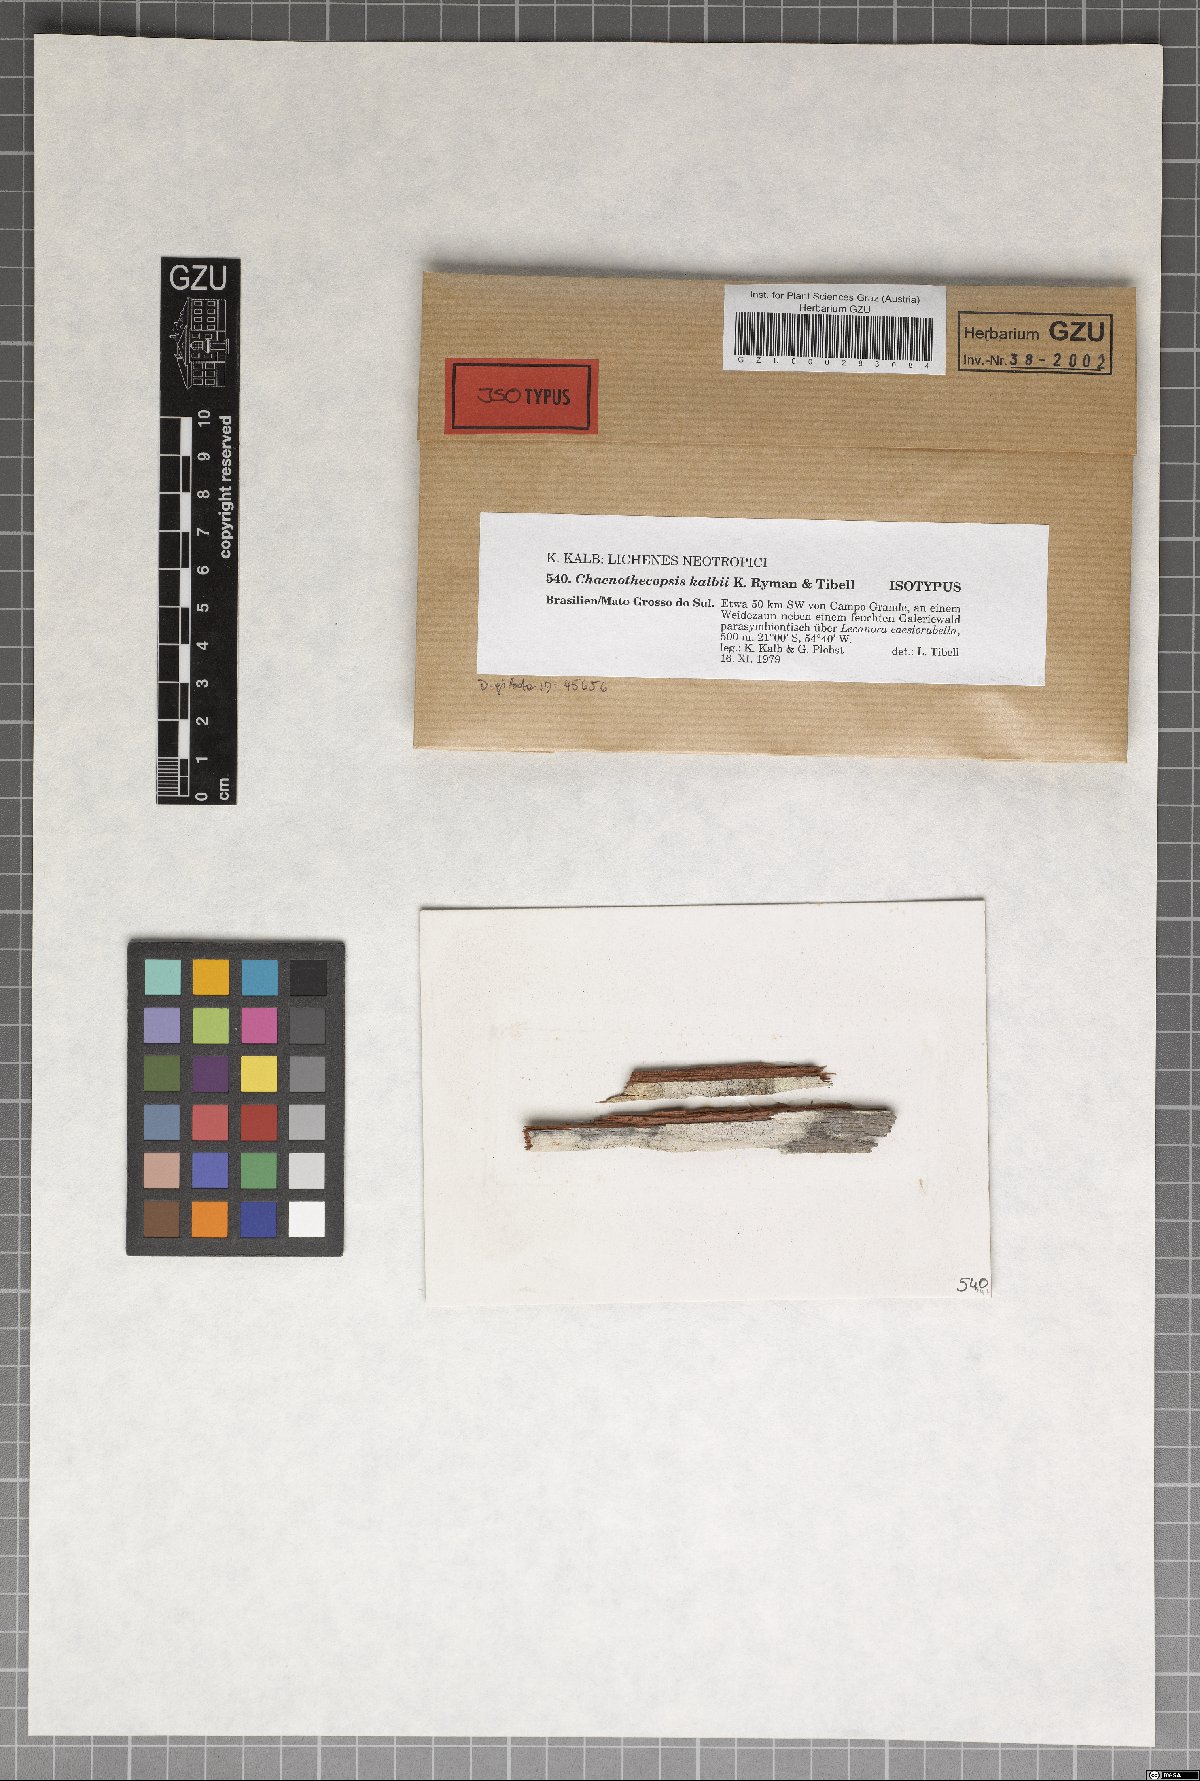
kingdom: Fungi
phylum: Ascomycota
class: Eurotiomycetes
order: Mycocaliciales
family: Mycocaliciaceae
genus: Chaenothecopsis
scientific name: Chaenothecopsis kalbii
